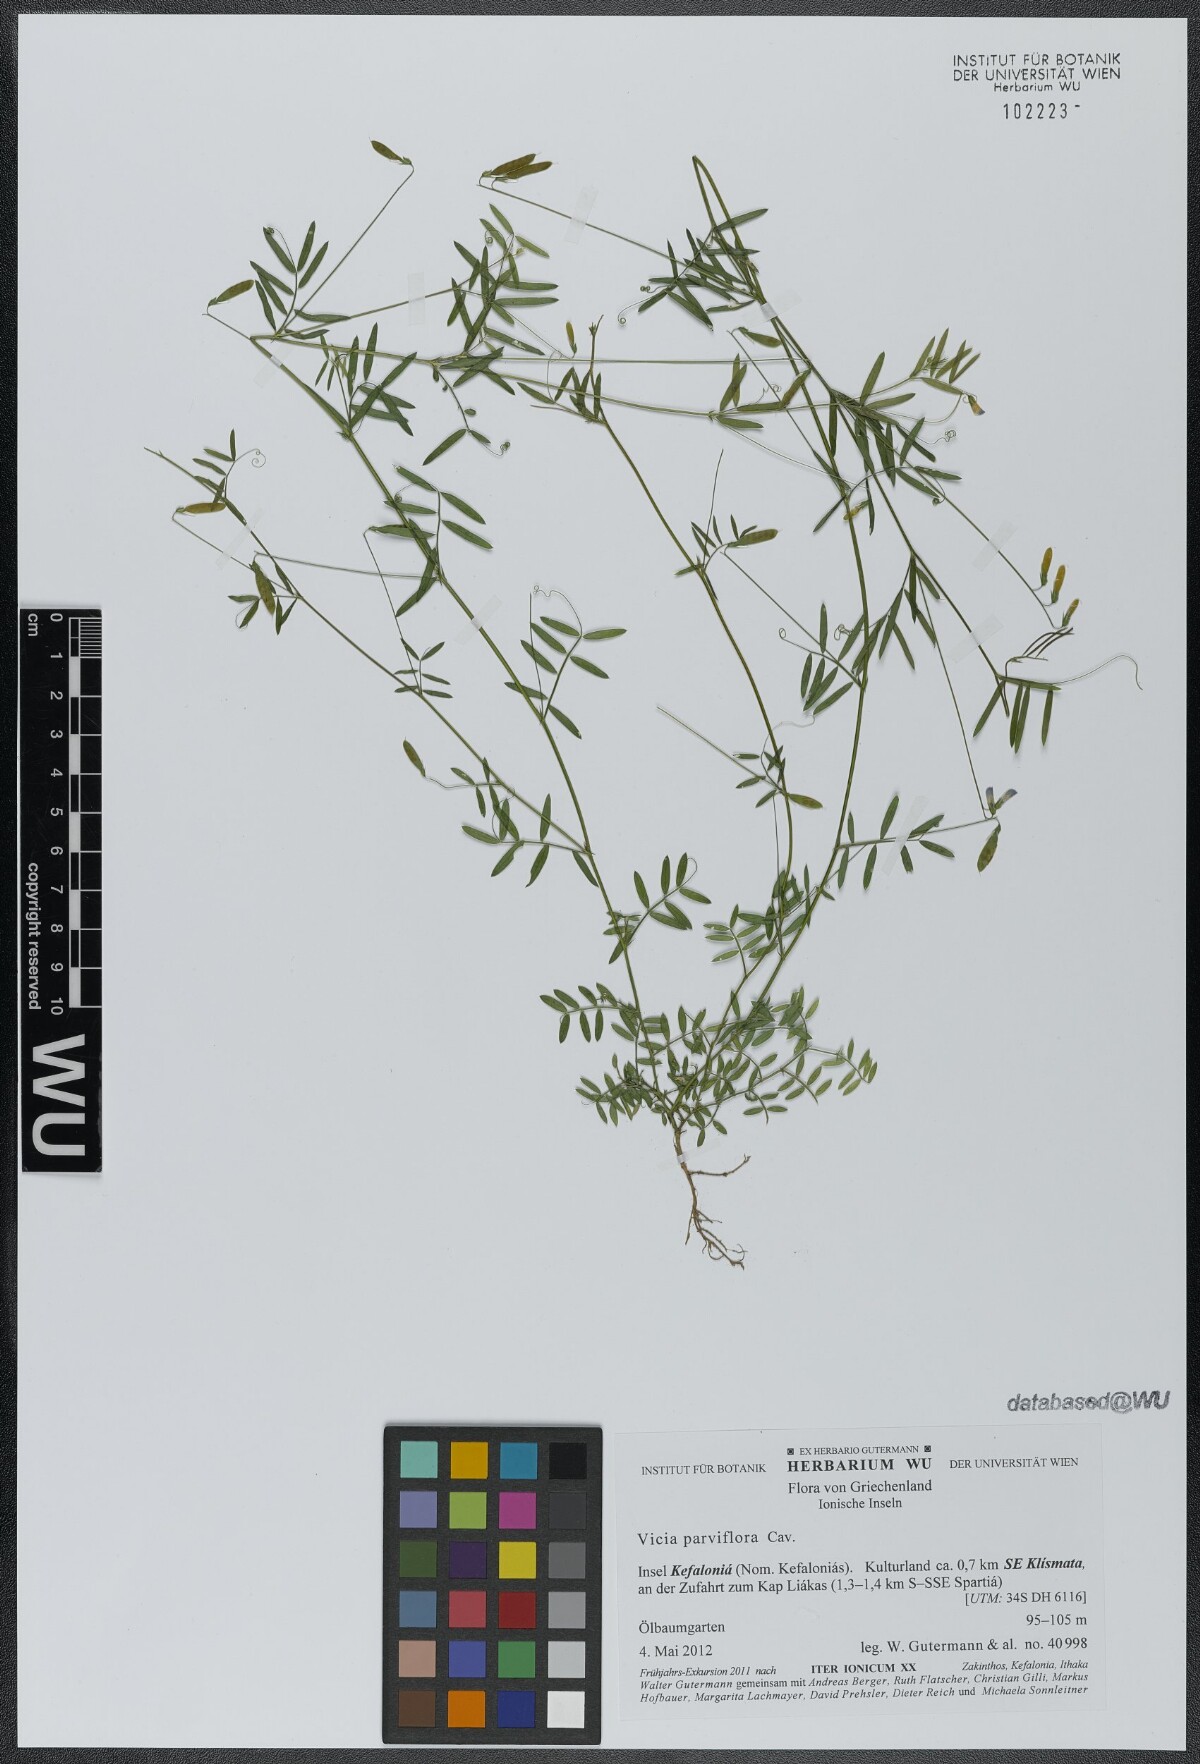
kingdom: Plantae
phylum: Tracheophyta
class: Magnoliopsida
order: Fabales
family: Fabaceae
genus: Vicia
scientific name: Vicia parviflora
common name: Slender tare
